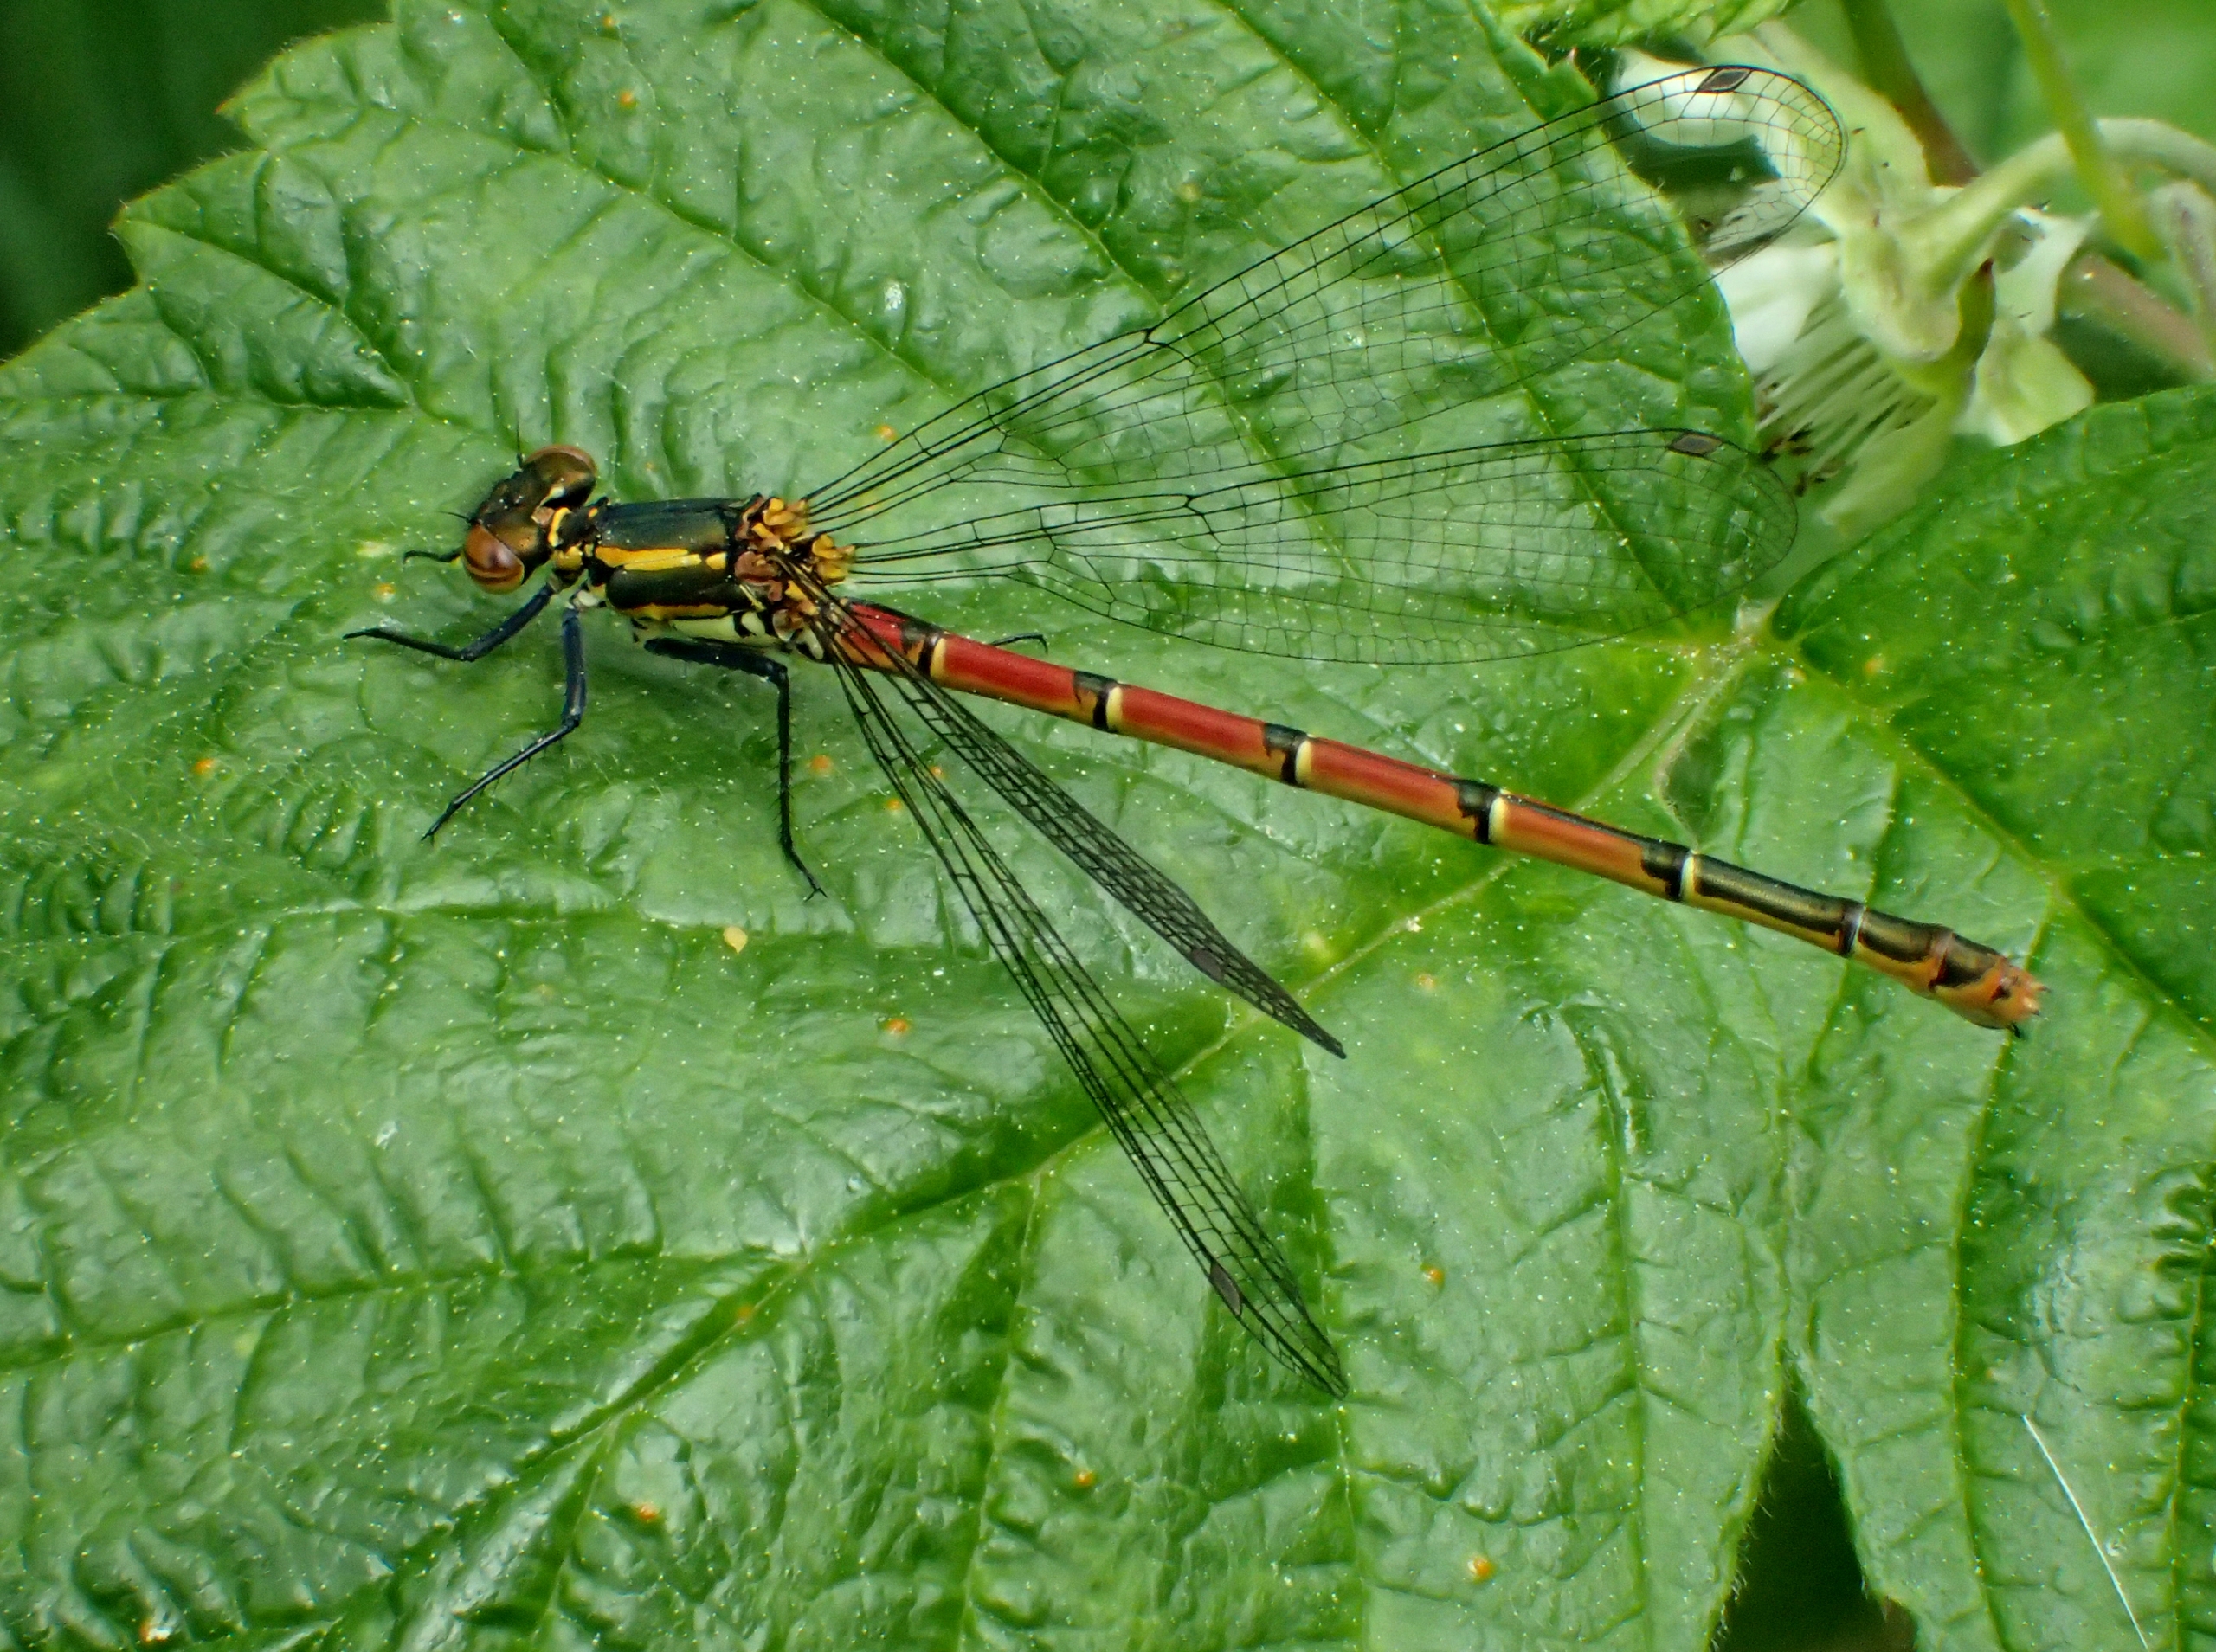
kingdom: Animalia
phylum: Arthropoda
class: Insecta
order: Odonata
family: Coenagrionidae
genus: Pyrrhosoma
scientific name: Pyrrhosoma nymphula
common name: Rød vandnymfe
